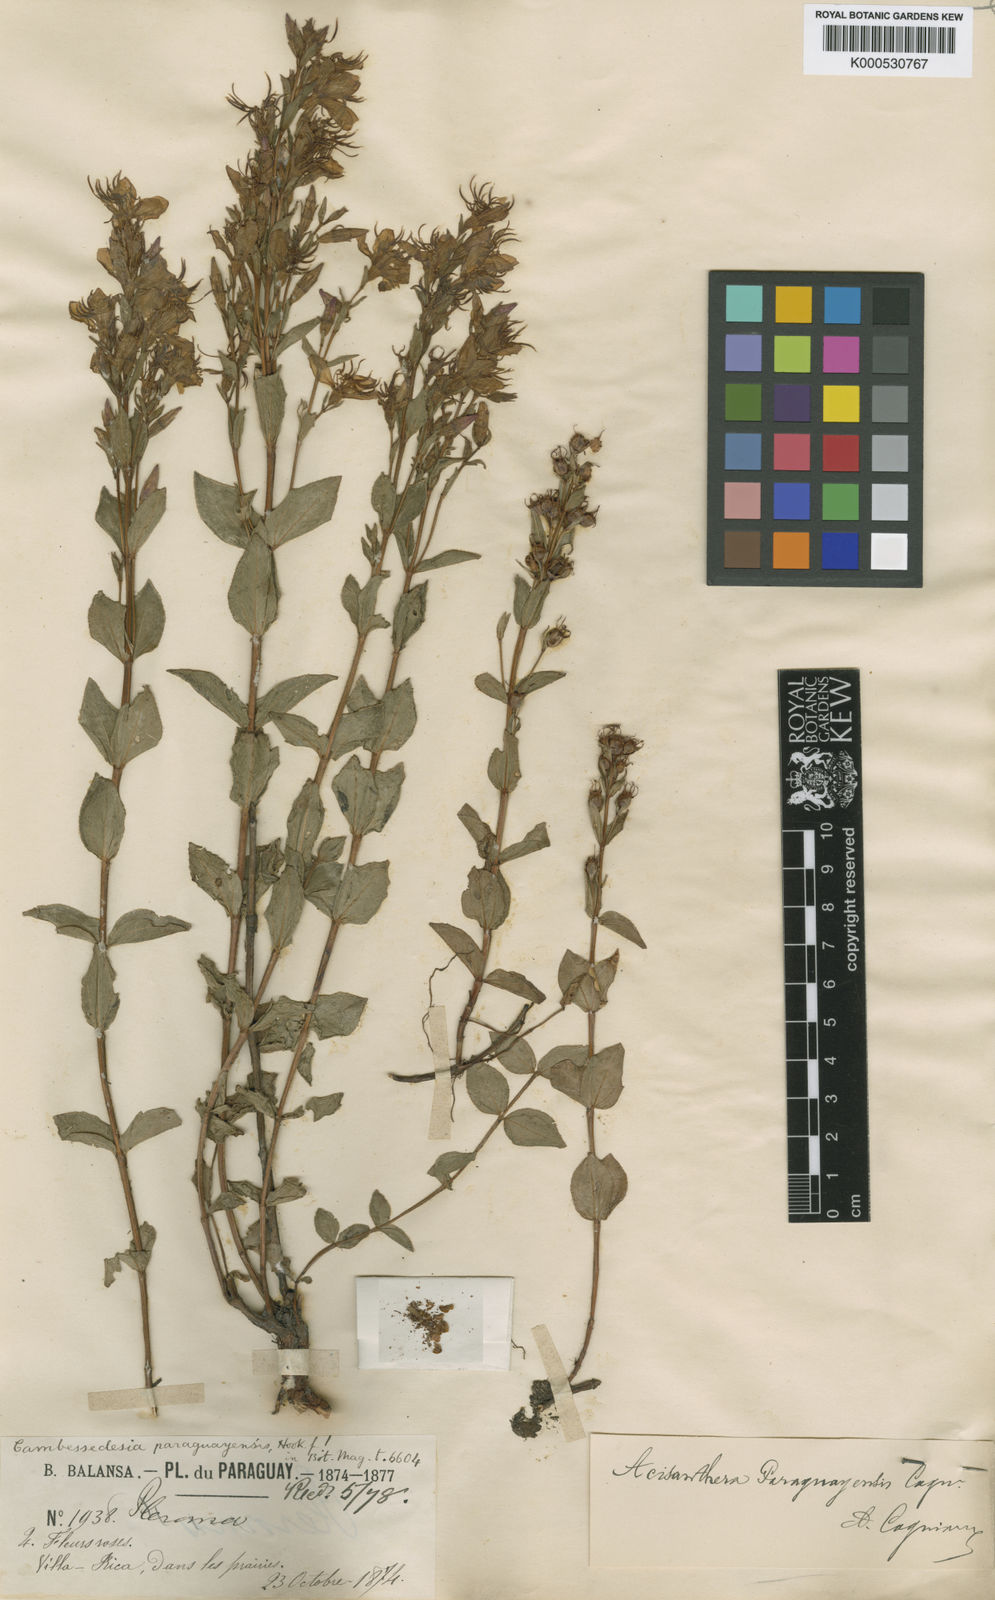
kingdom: Plantae
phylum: Tracheophyta
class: Magnoliopsida
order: Myrtales
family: Melastomataceae
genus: Acisanthera
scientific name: Acisanthera paraguayensis
